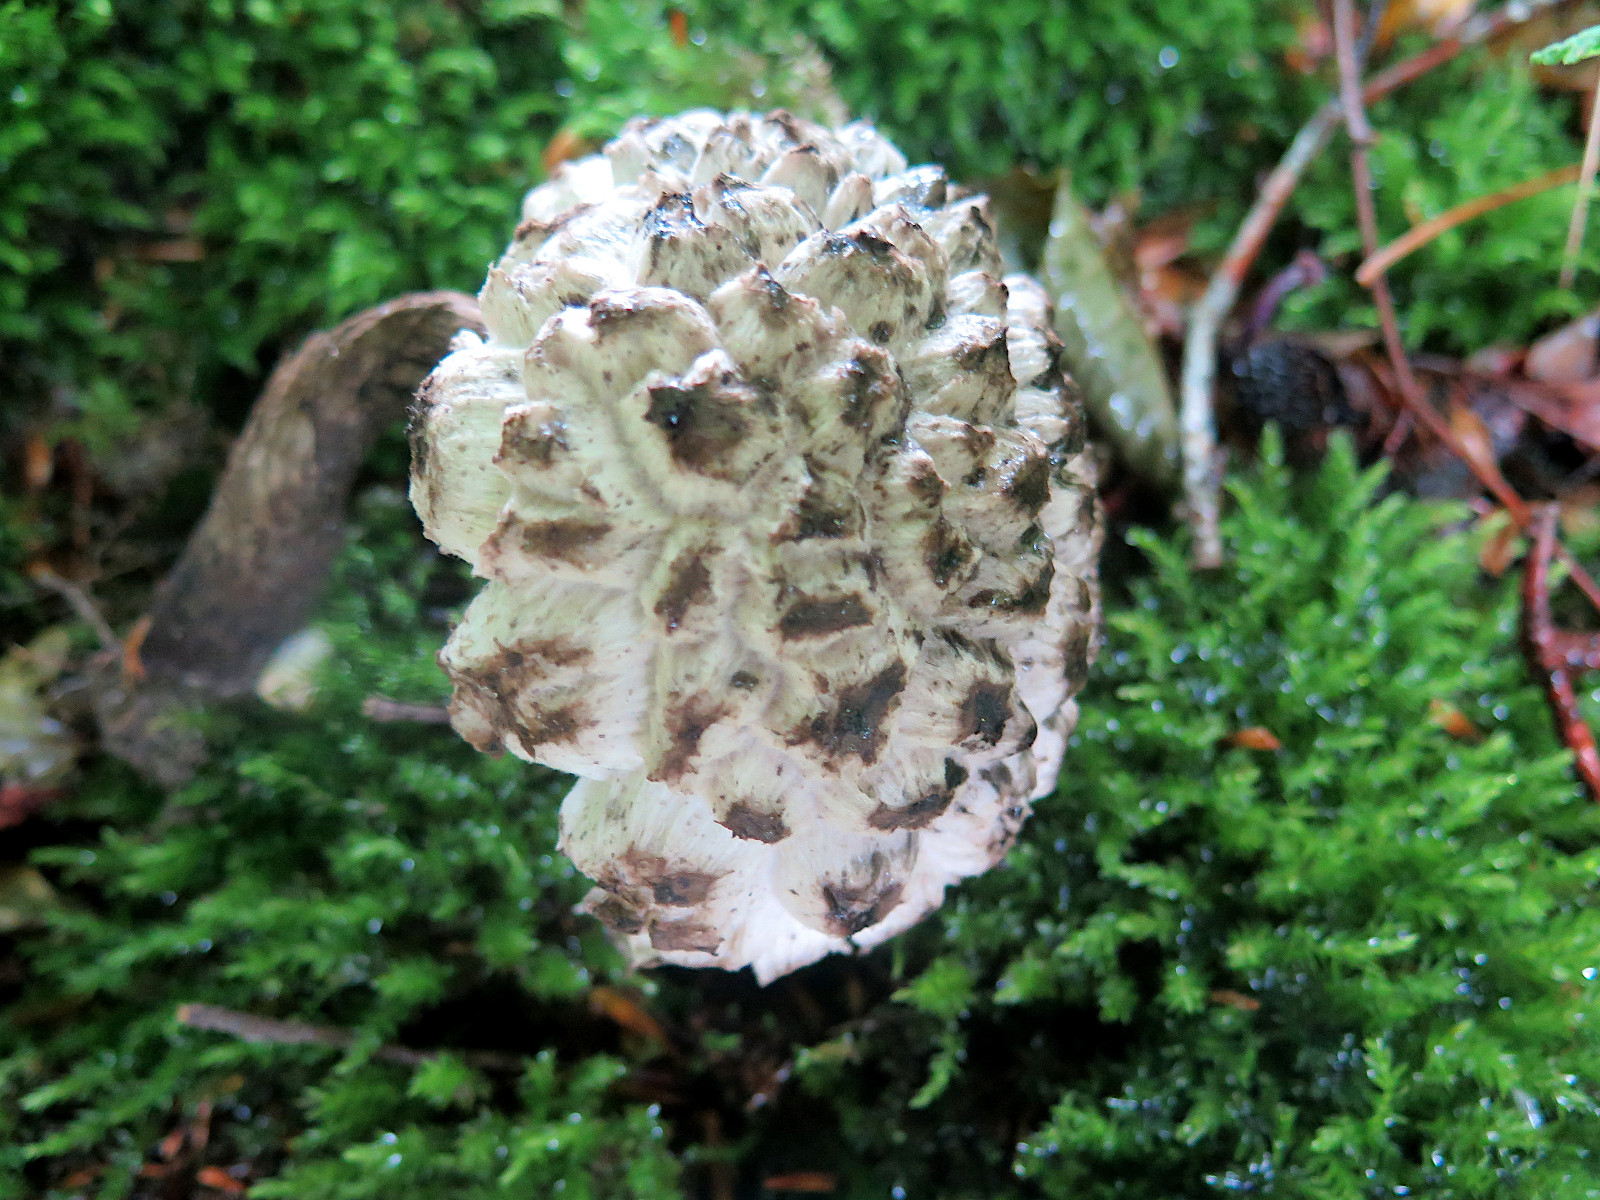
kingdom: Fungi
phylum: Basidiomycota
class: Agaricomycetes
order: Boletales
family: Boletaceae
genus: Strobilomyces
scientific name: Strobilomyces strobilaceus
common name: koglerørhat
